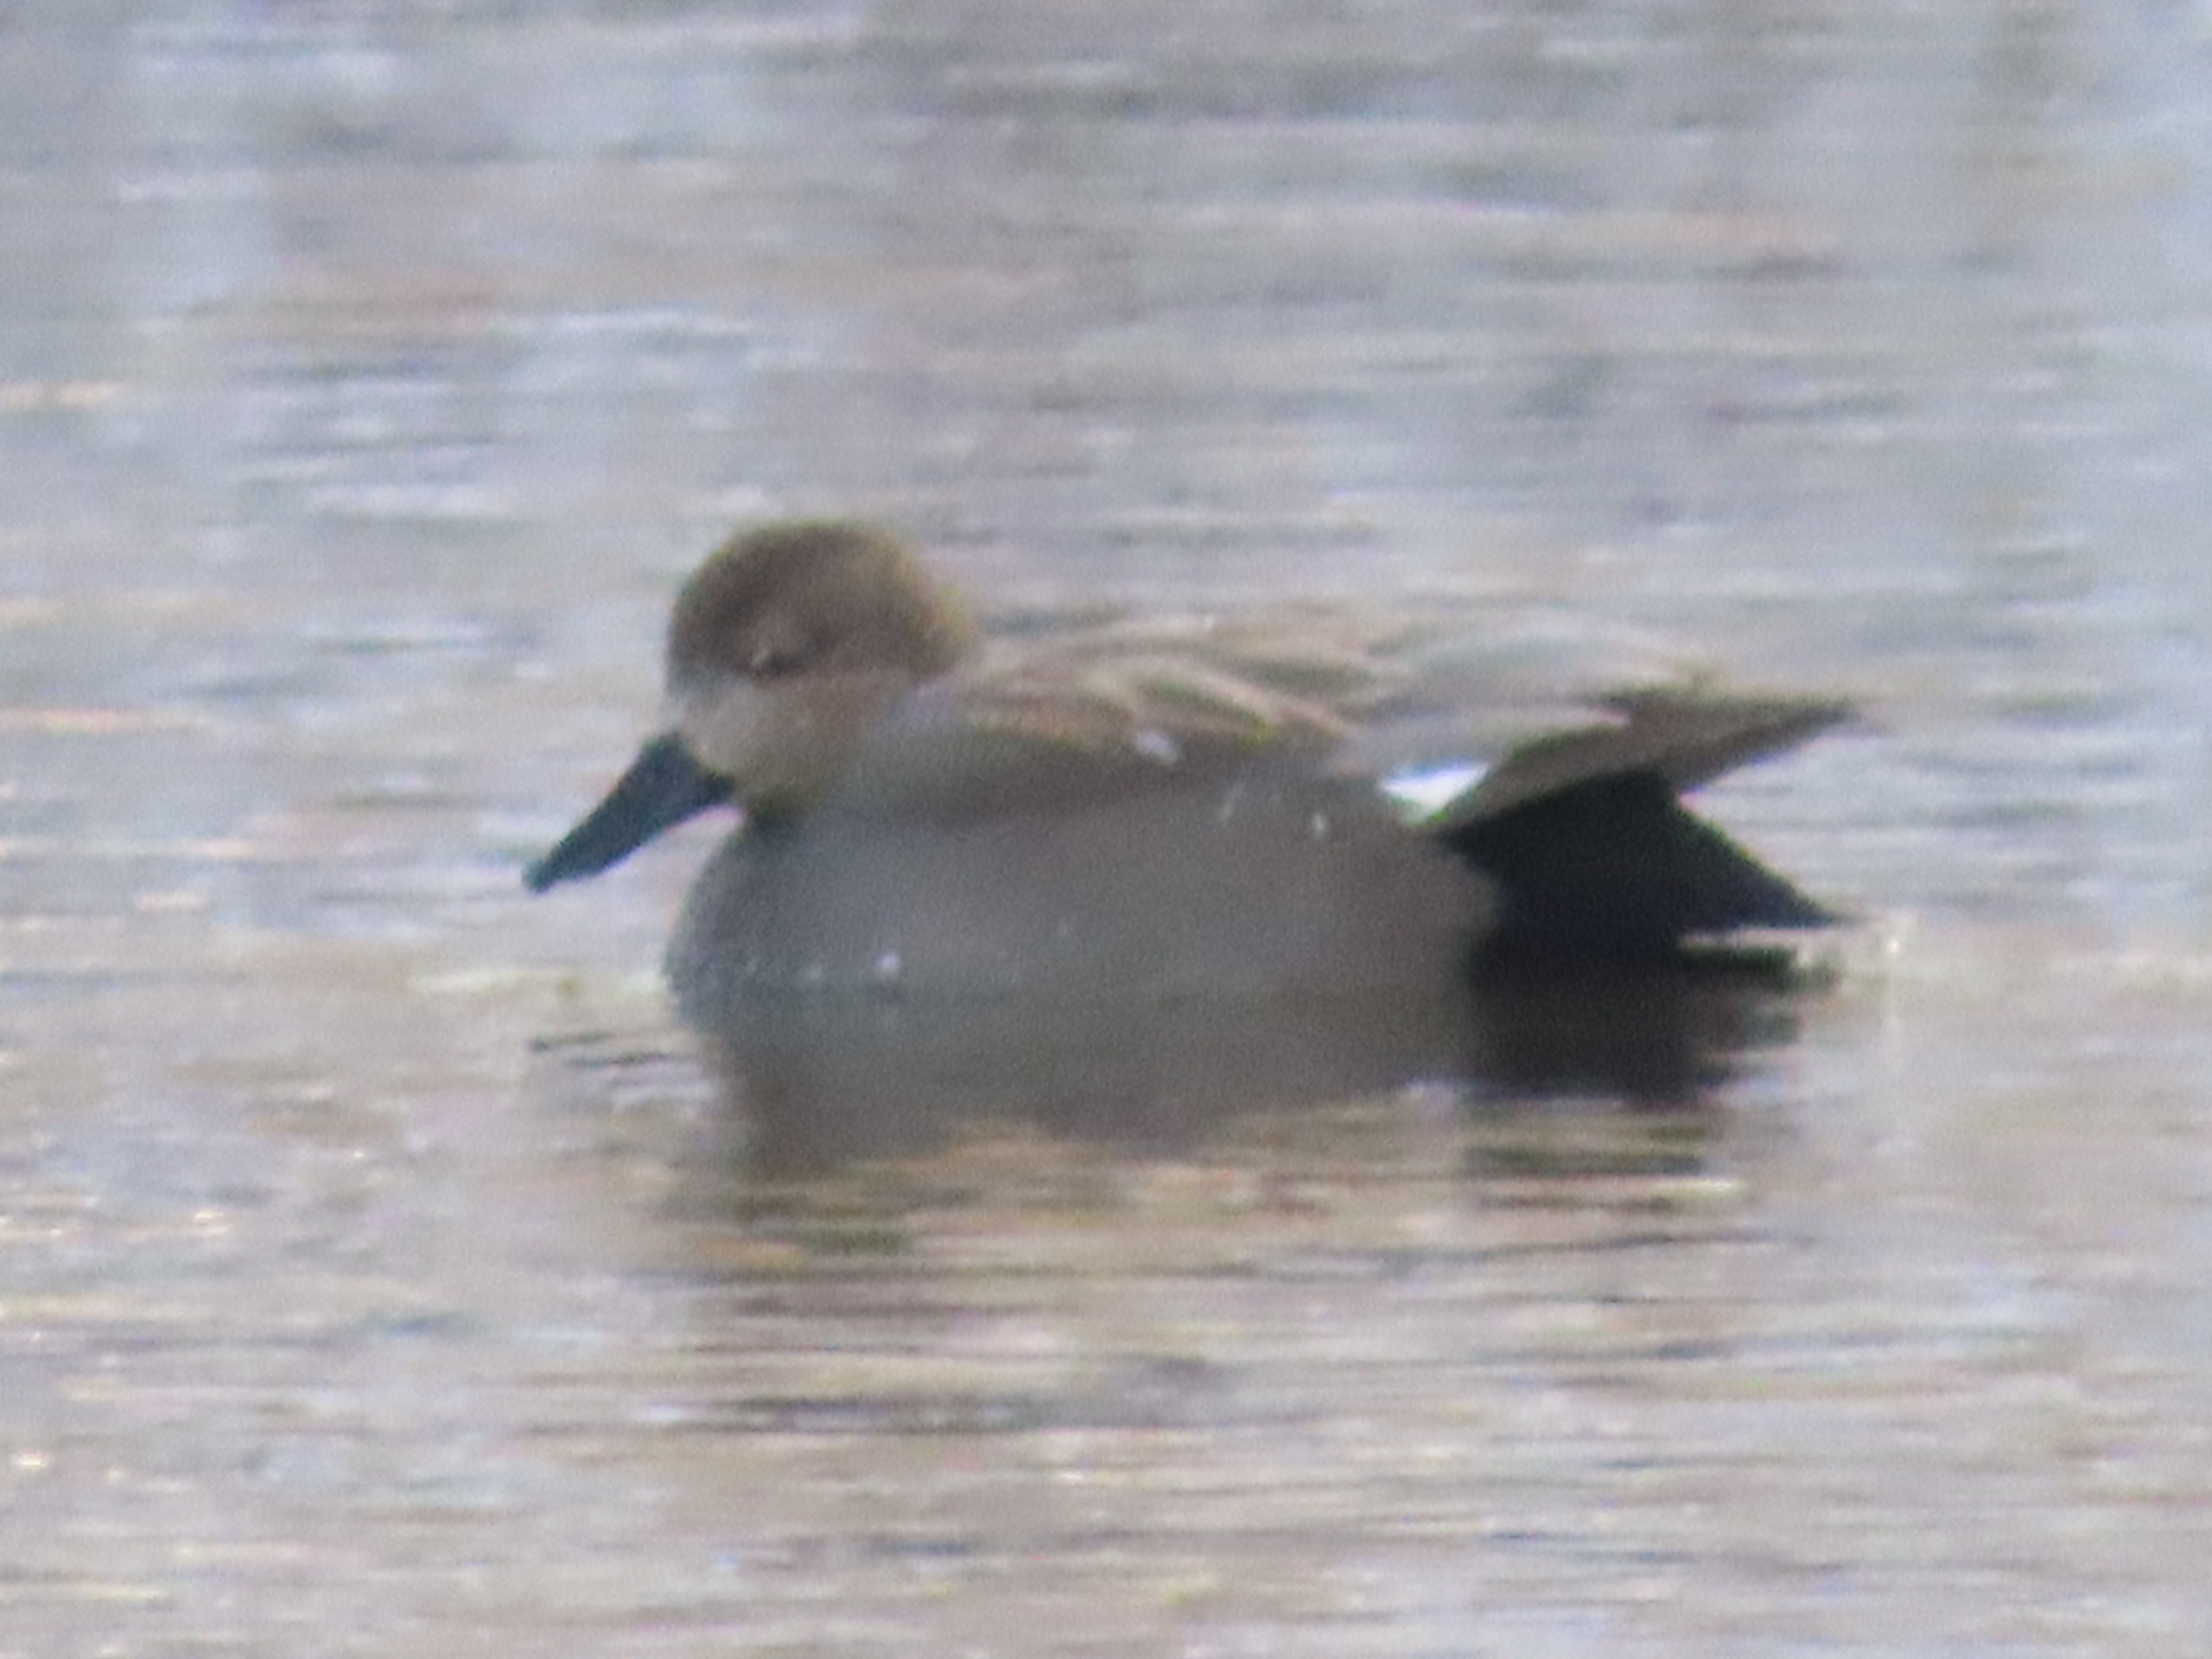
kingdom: Animalia
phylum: Chordata
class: Aves
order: Anseriformes
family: Anatidae
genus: Mareca
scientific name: Mareca strepera
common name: Knarand
